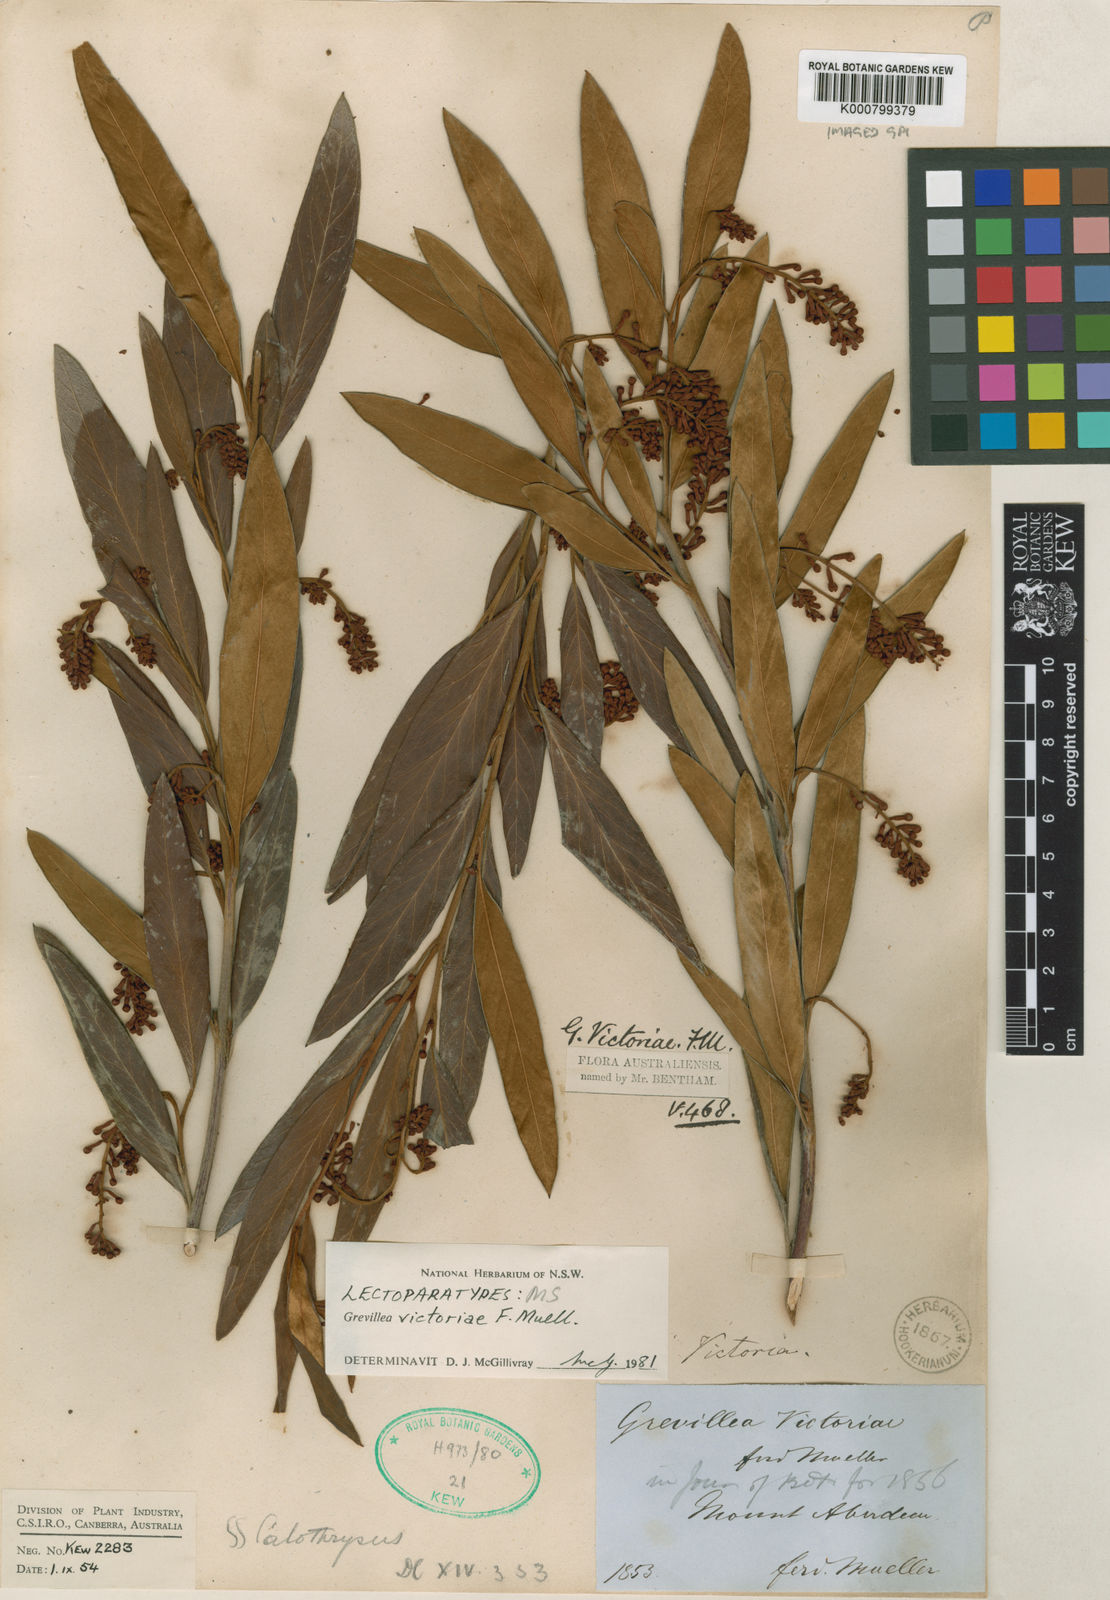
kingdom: Plantae
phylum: Tracheophyta
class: Magnoliopsida
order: Proteales
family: Proteaceae
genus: Grevillea
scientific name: Grevillea victoriae
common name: Royal grevillea
